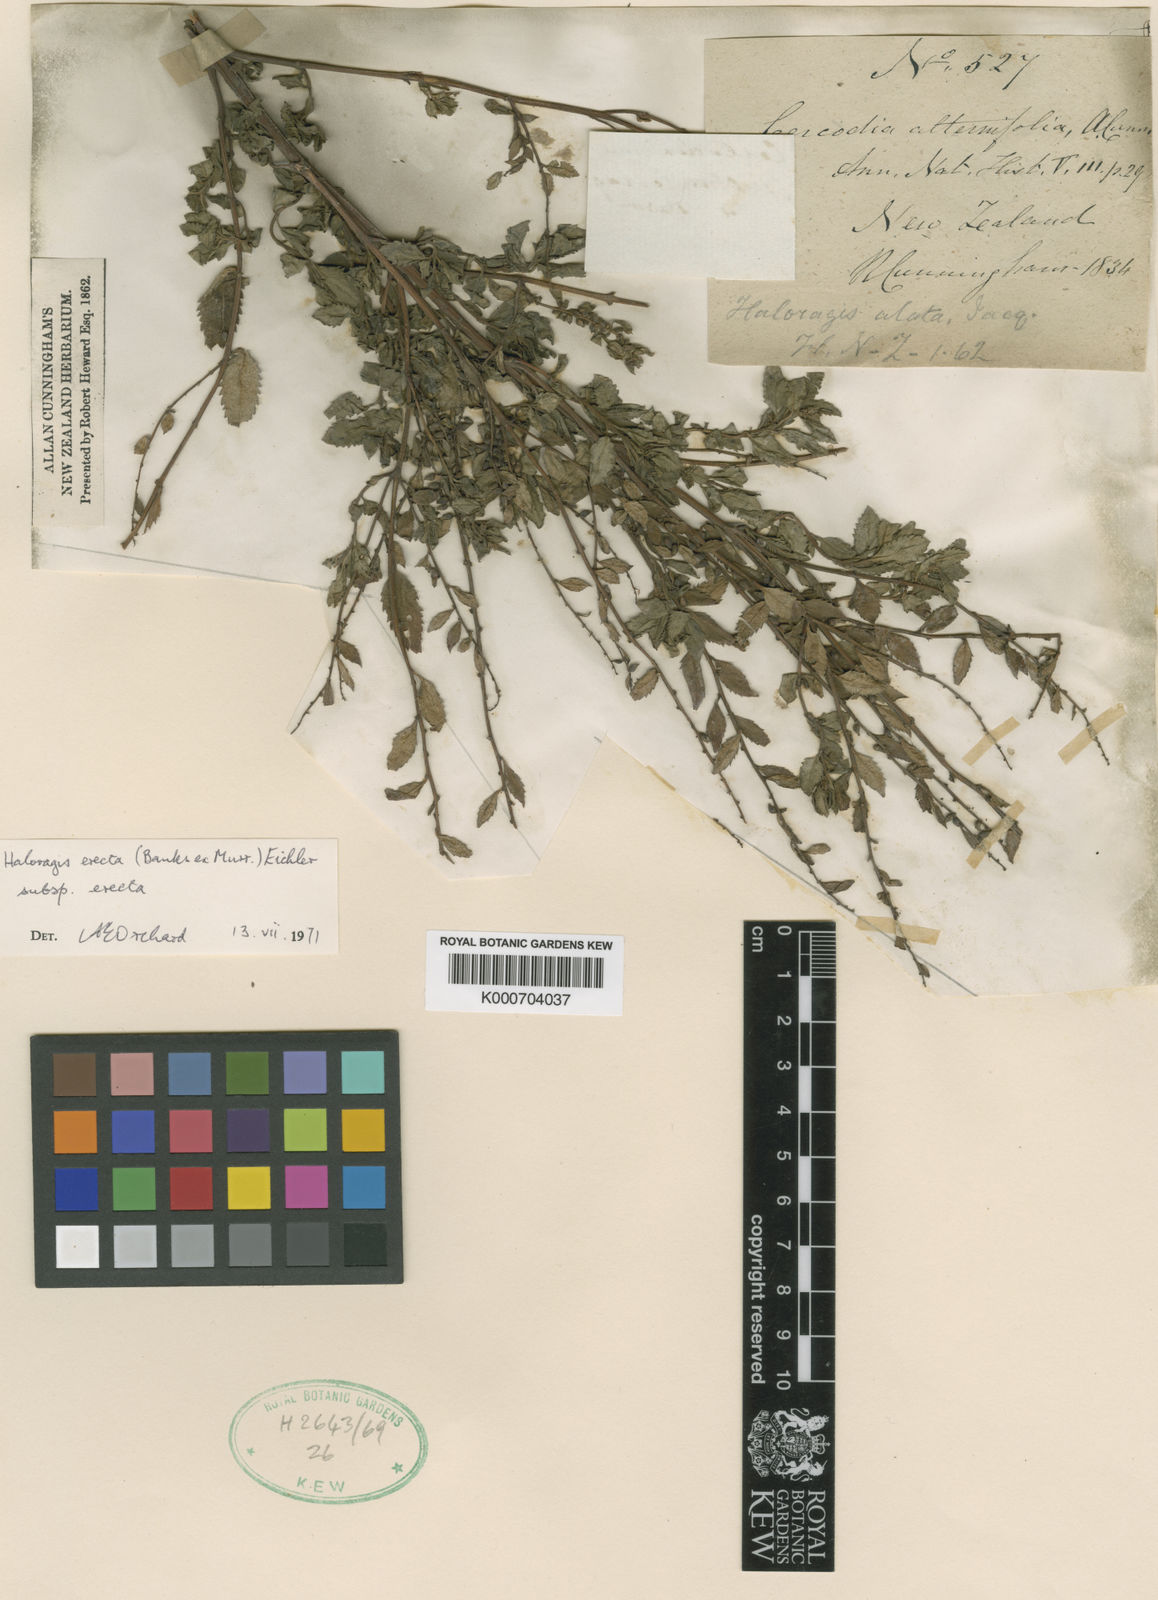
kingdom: Plantae
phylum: Tracheophyta
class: Magnoliopsida
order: Saxifragales
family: Haloragaceae
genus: Haloragis
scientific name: Haloragis
